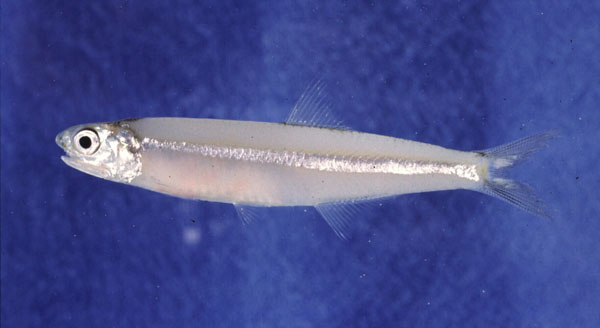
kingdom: Animalia
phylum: Chordata
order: Clupeiformes
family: Engraulidae
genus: Stolephorus
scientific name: Stolephorus
